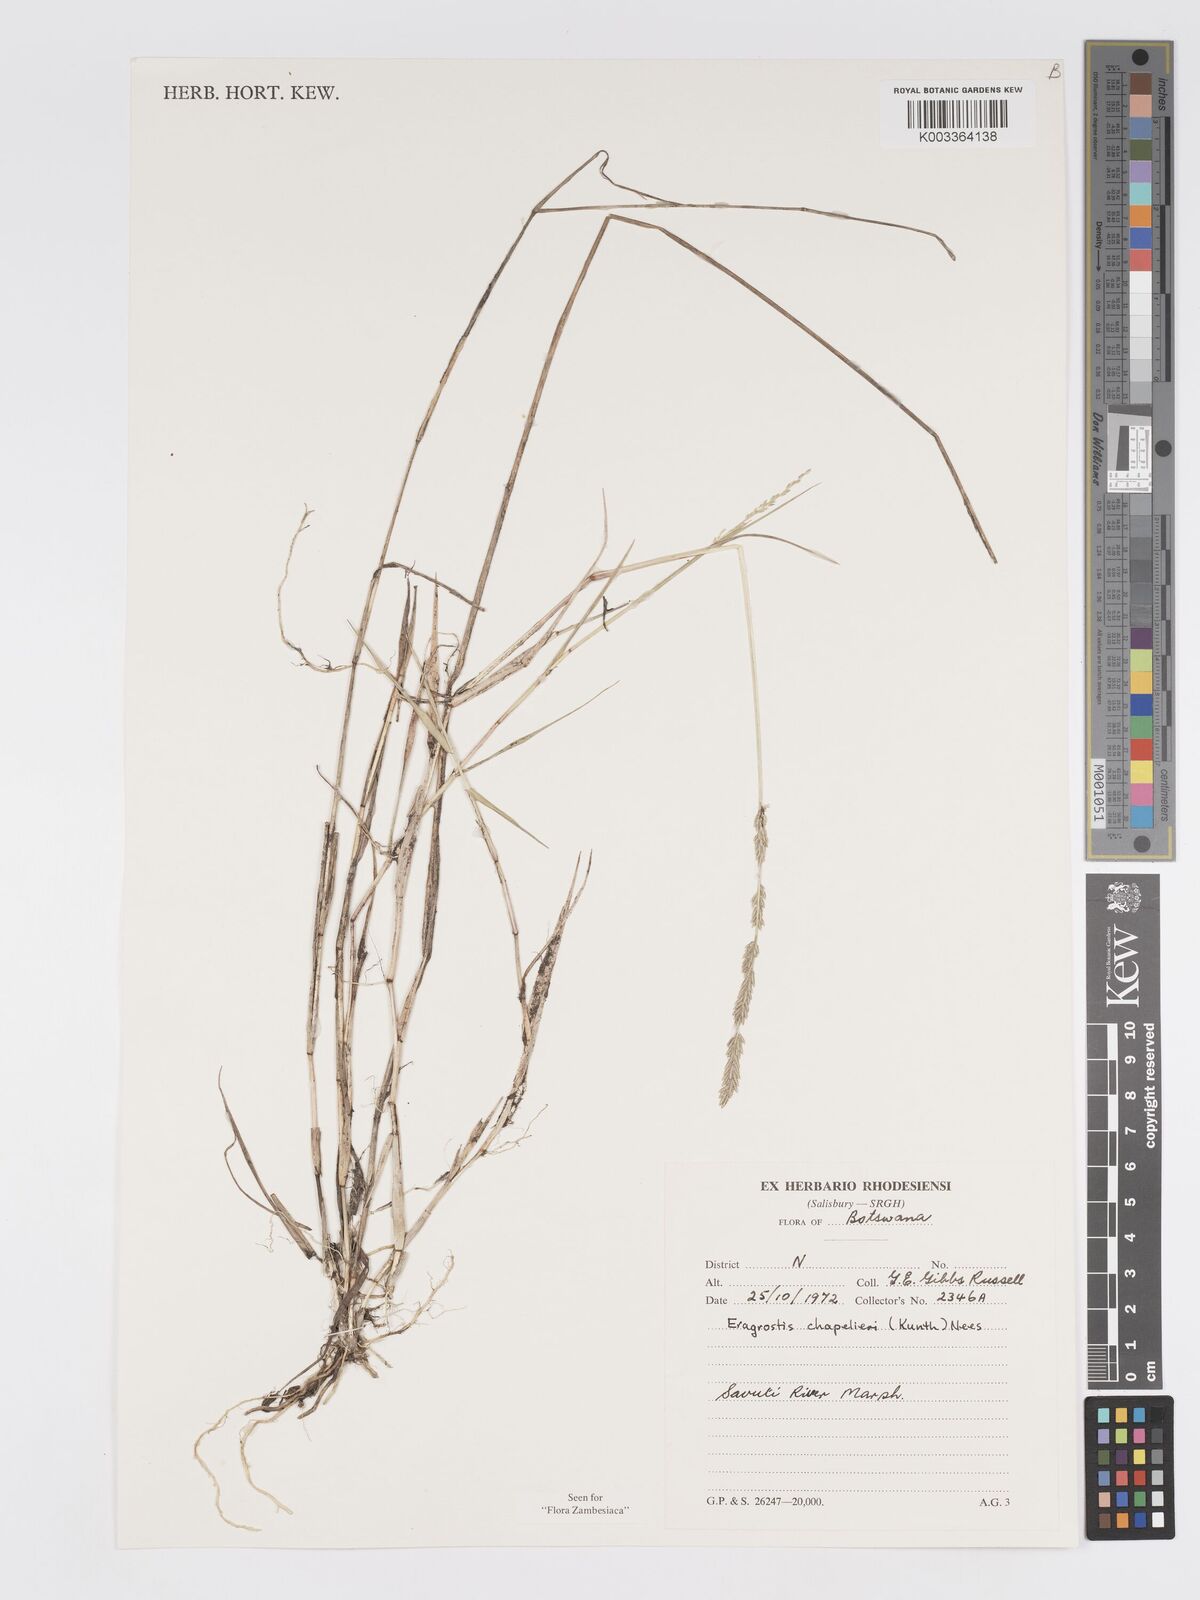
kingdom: Plantae
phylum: Tracheophyta
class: Liliopsida
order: Poales
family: Poaceae
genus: Eragrostis
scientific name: Eragrostis sarmentosa
